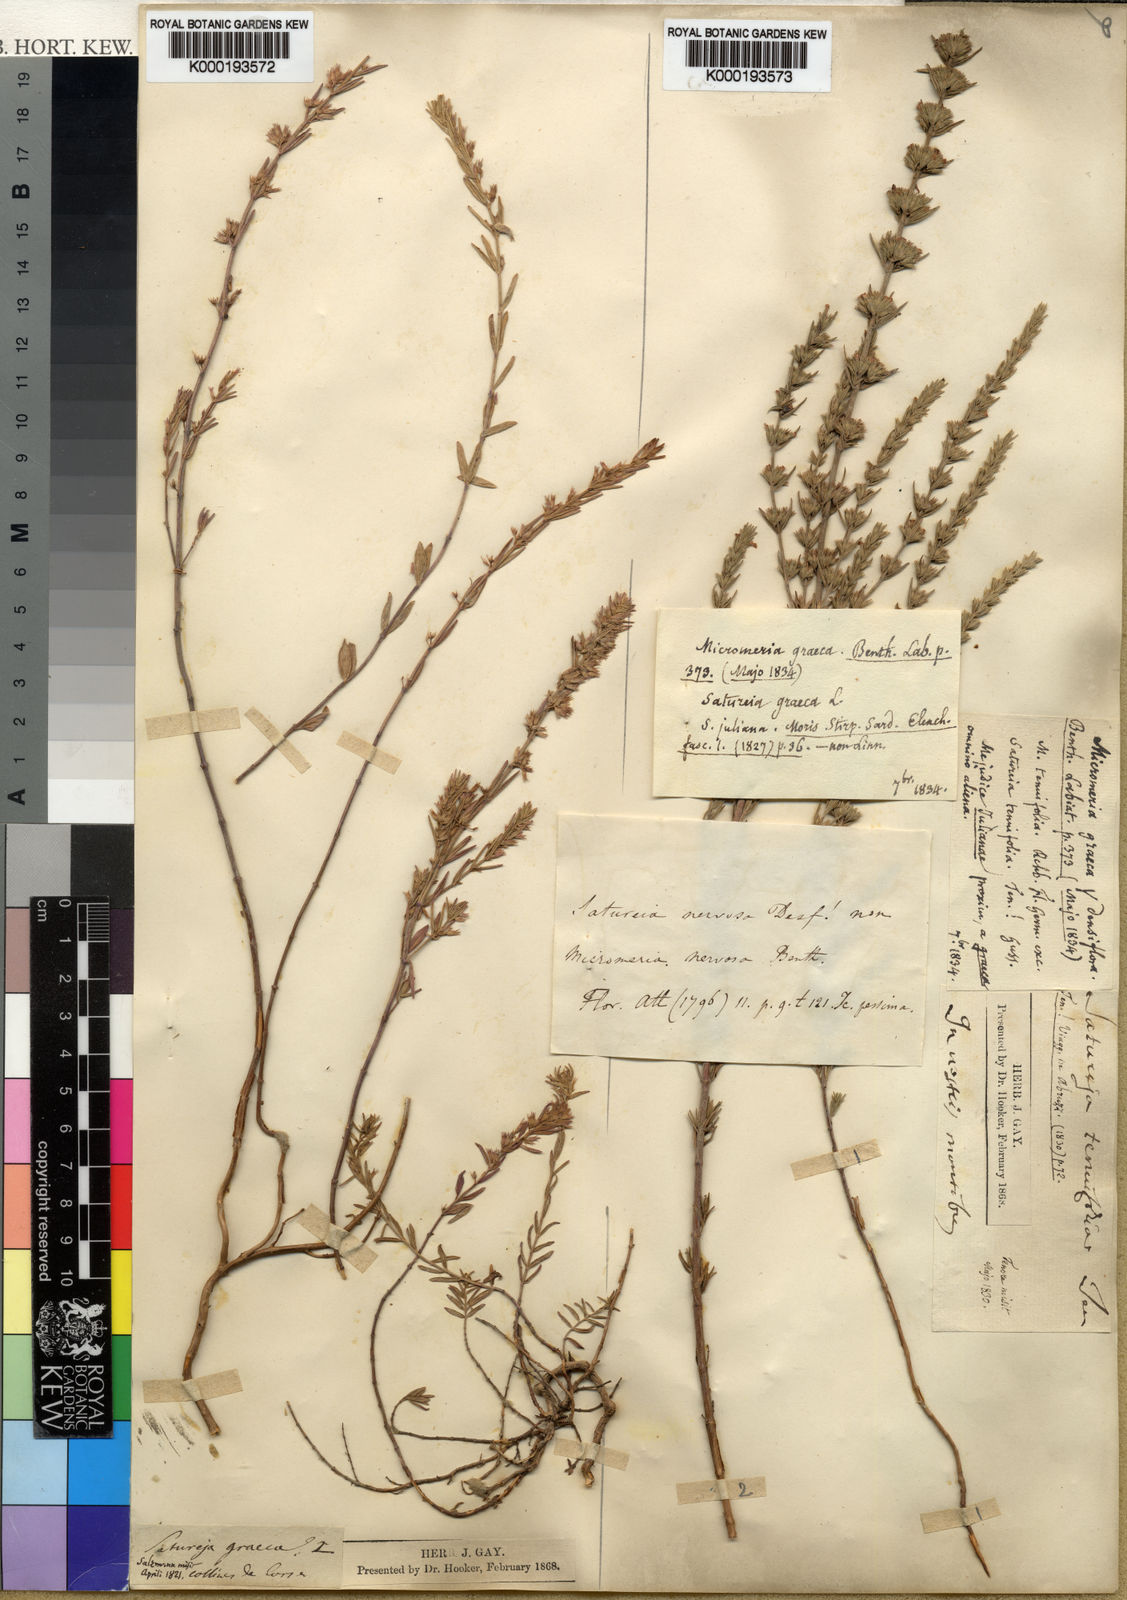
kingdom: Plantae
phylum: Tracheophyta
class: Magnoliopsida
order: Lamiales
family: Lamiaceae
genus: Micromeria
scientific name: Micromeria graeca
